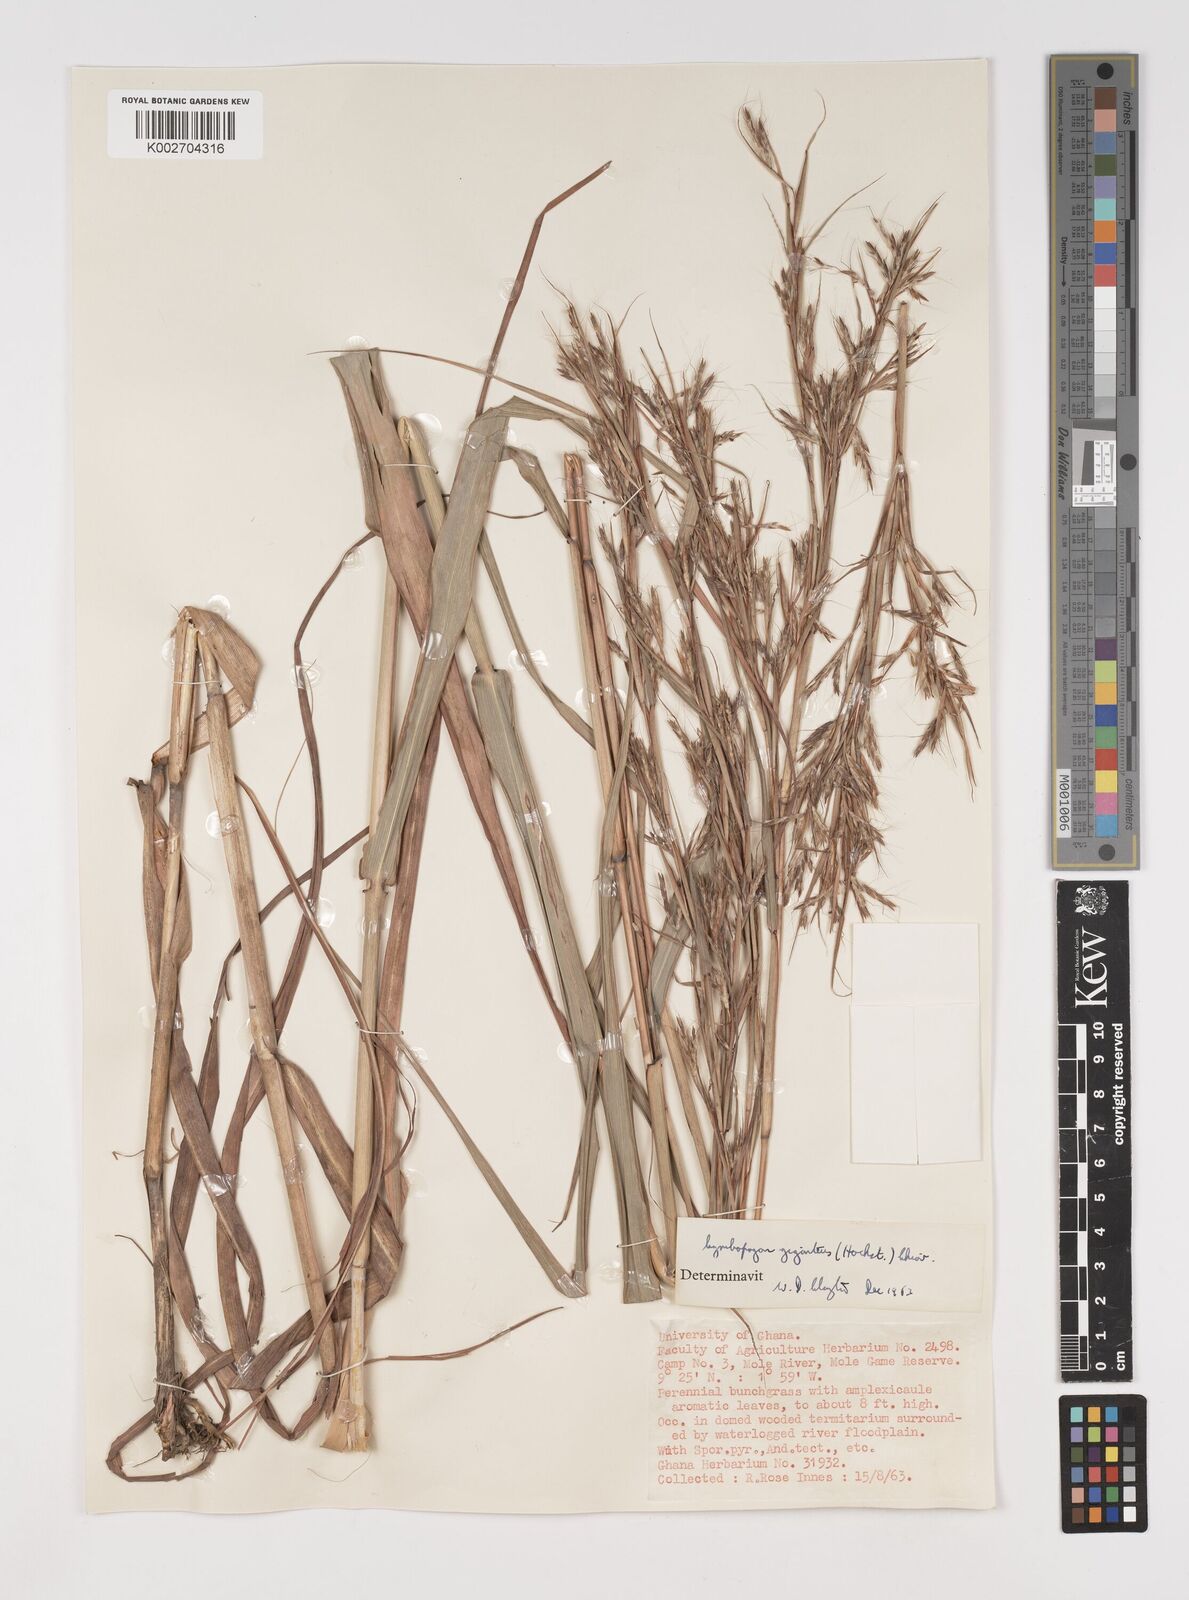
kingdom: Plantae
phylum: Tracheophyta
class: Liliopsida
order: Poales
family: Poaceae
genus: Cymbopogon
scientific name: Cymbopogon giganteus
